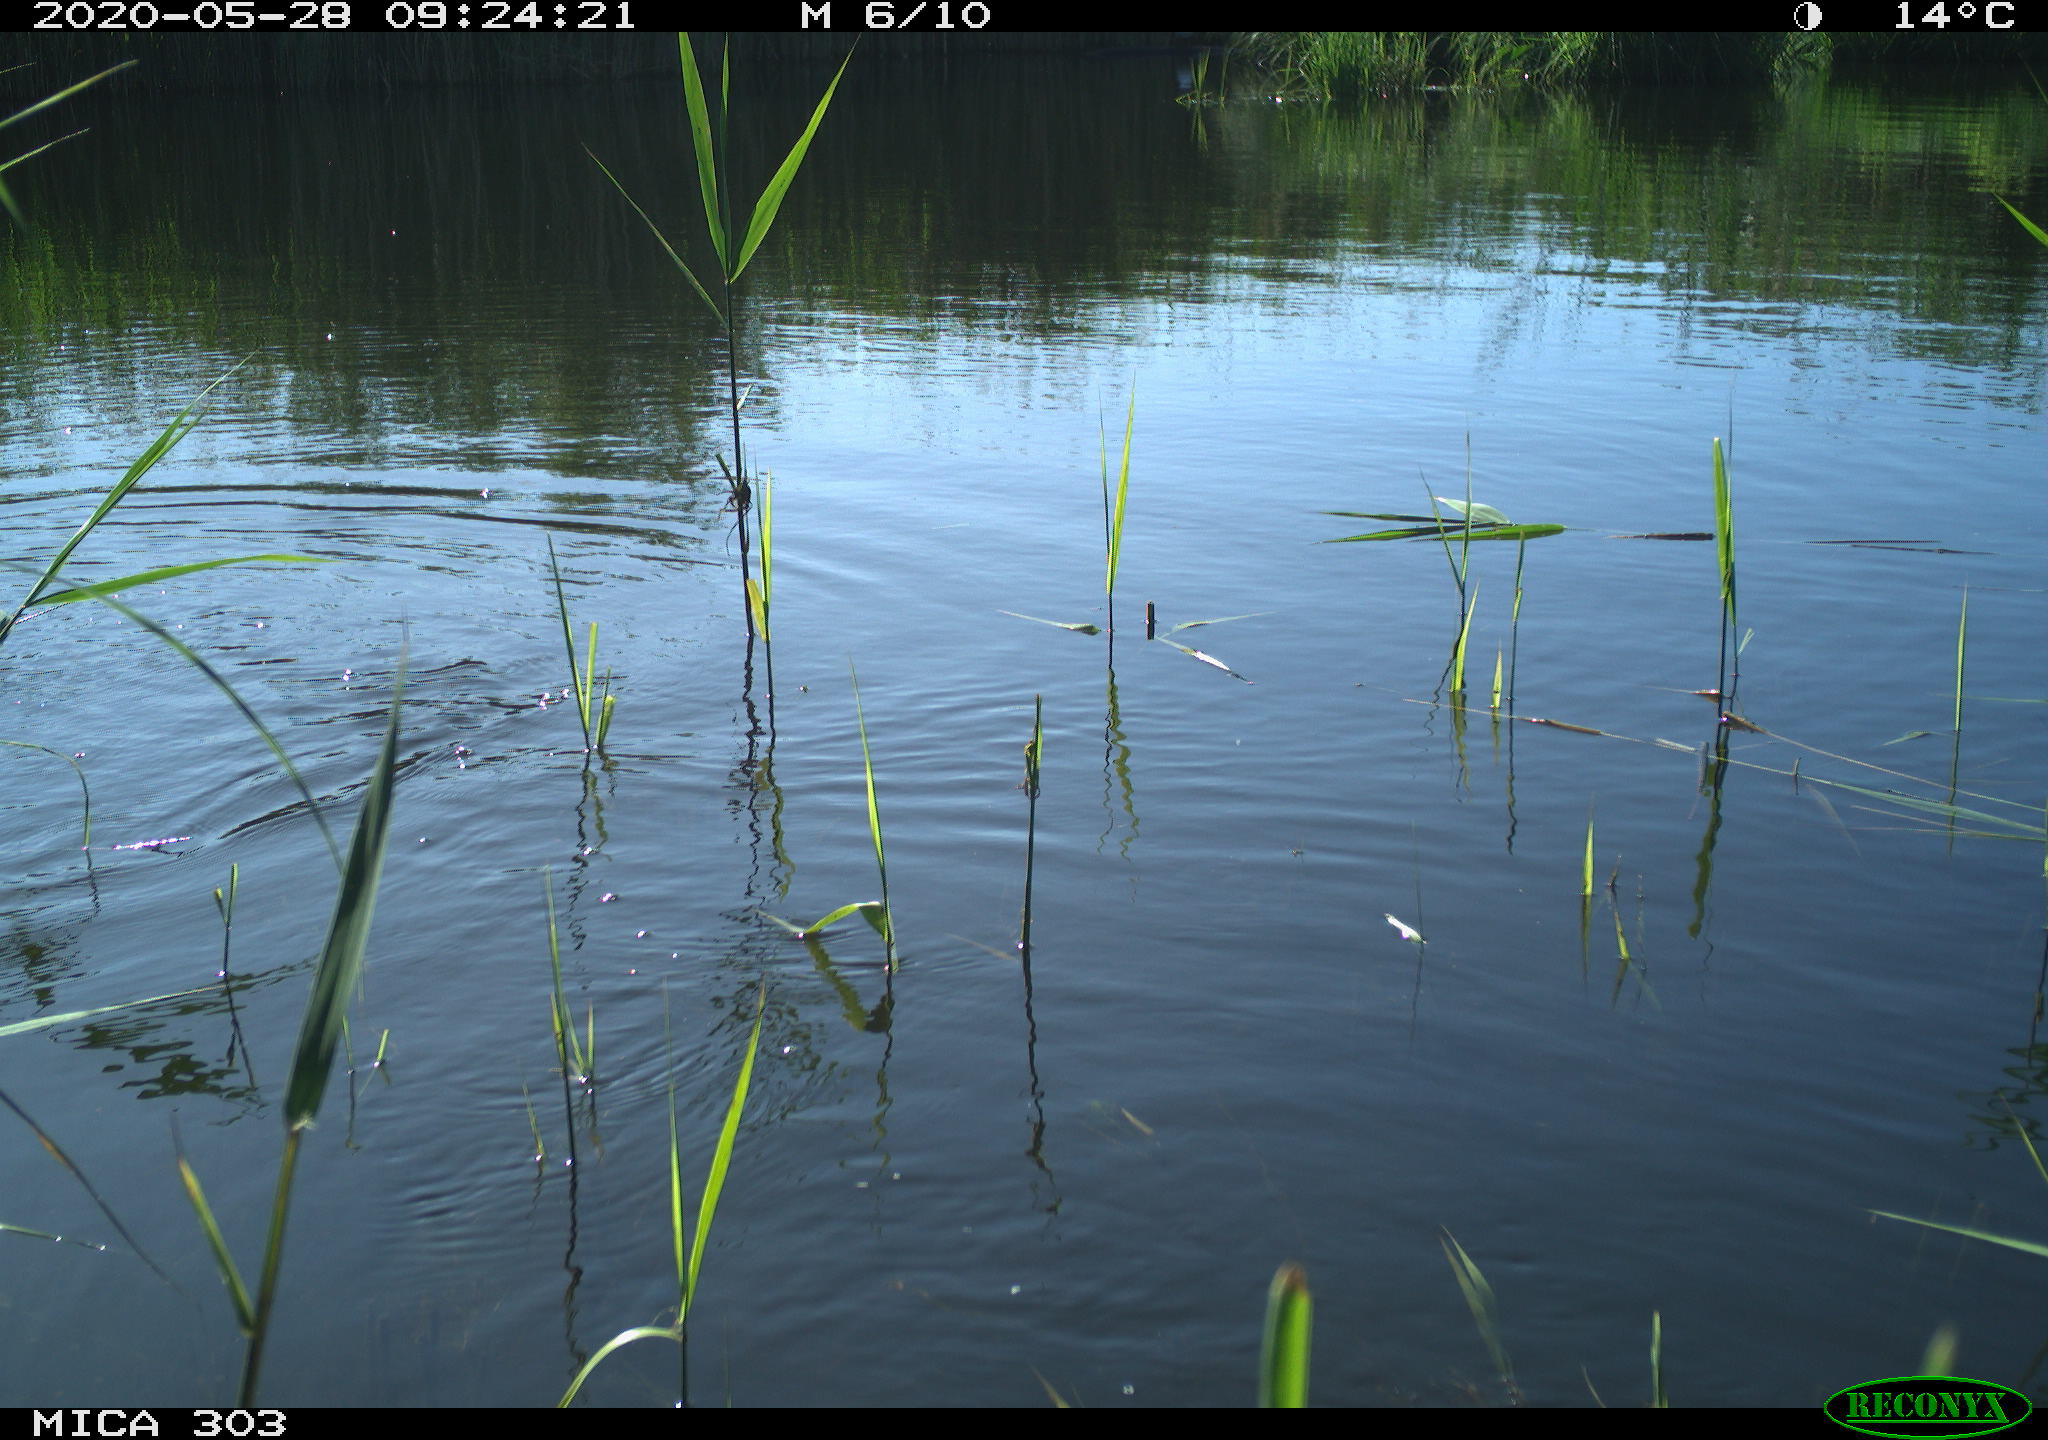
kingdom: Animalia
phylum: Chordata
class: Aves
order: Gruiformes
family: Rallidae
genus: Gallinula
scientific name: Gallinula chloropus
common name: Common moorhen
